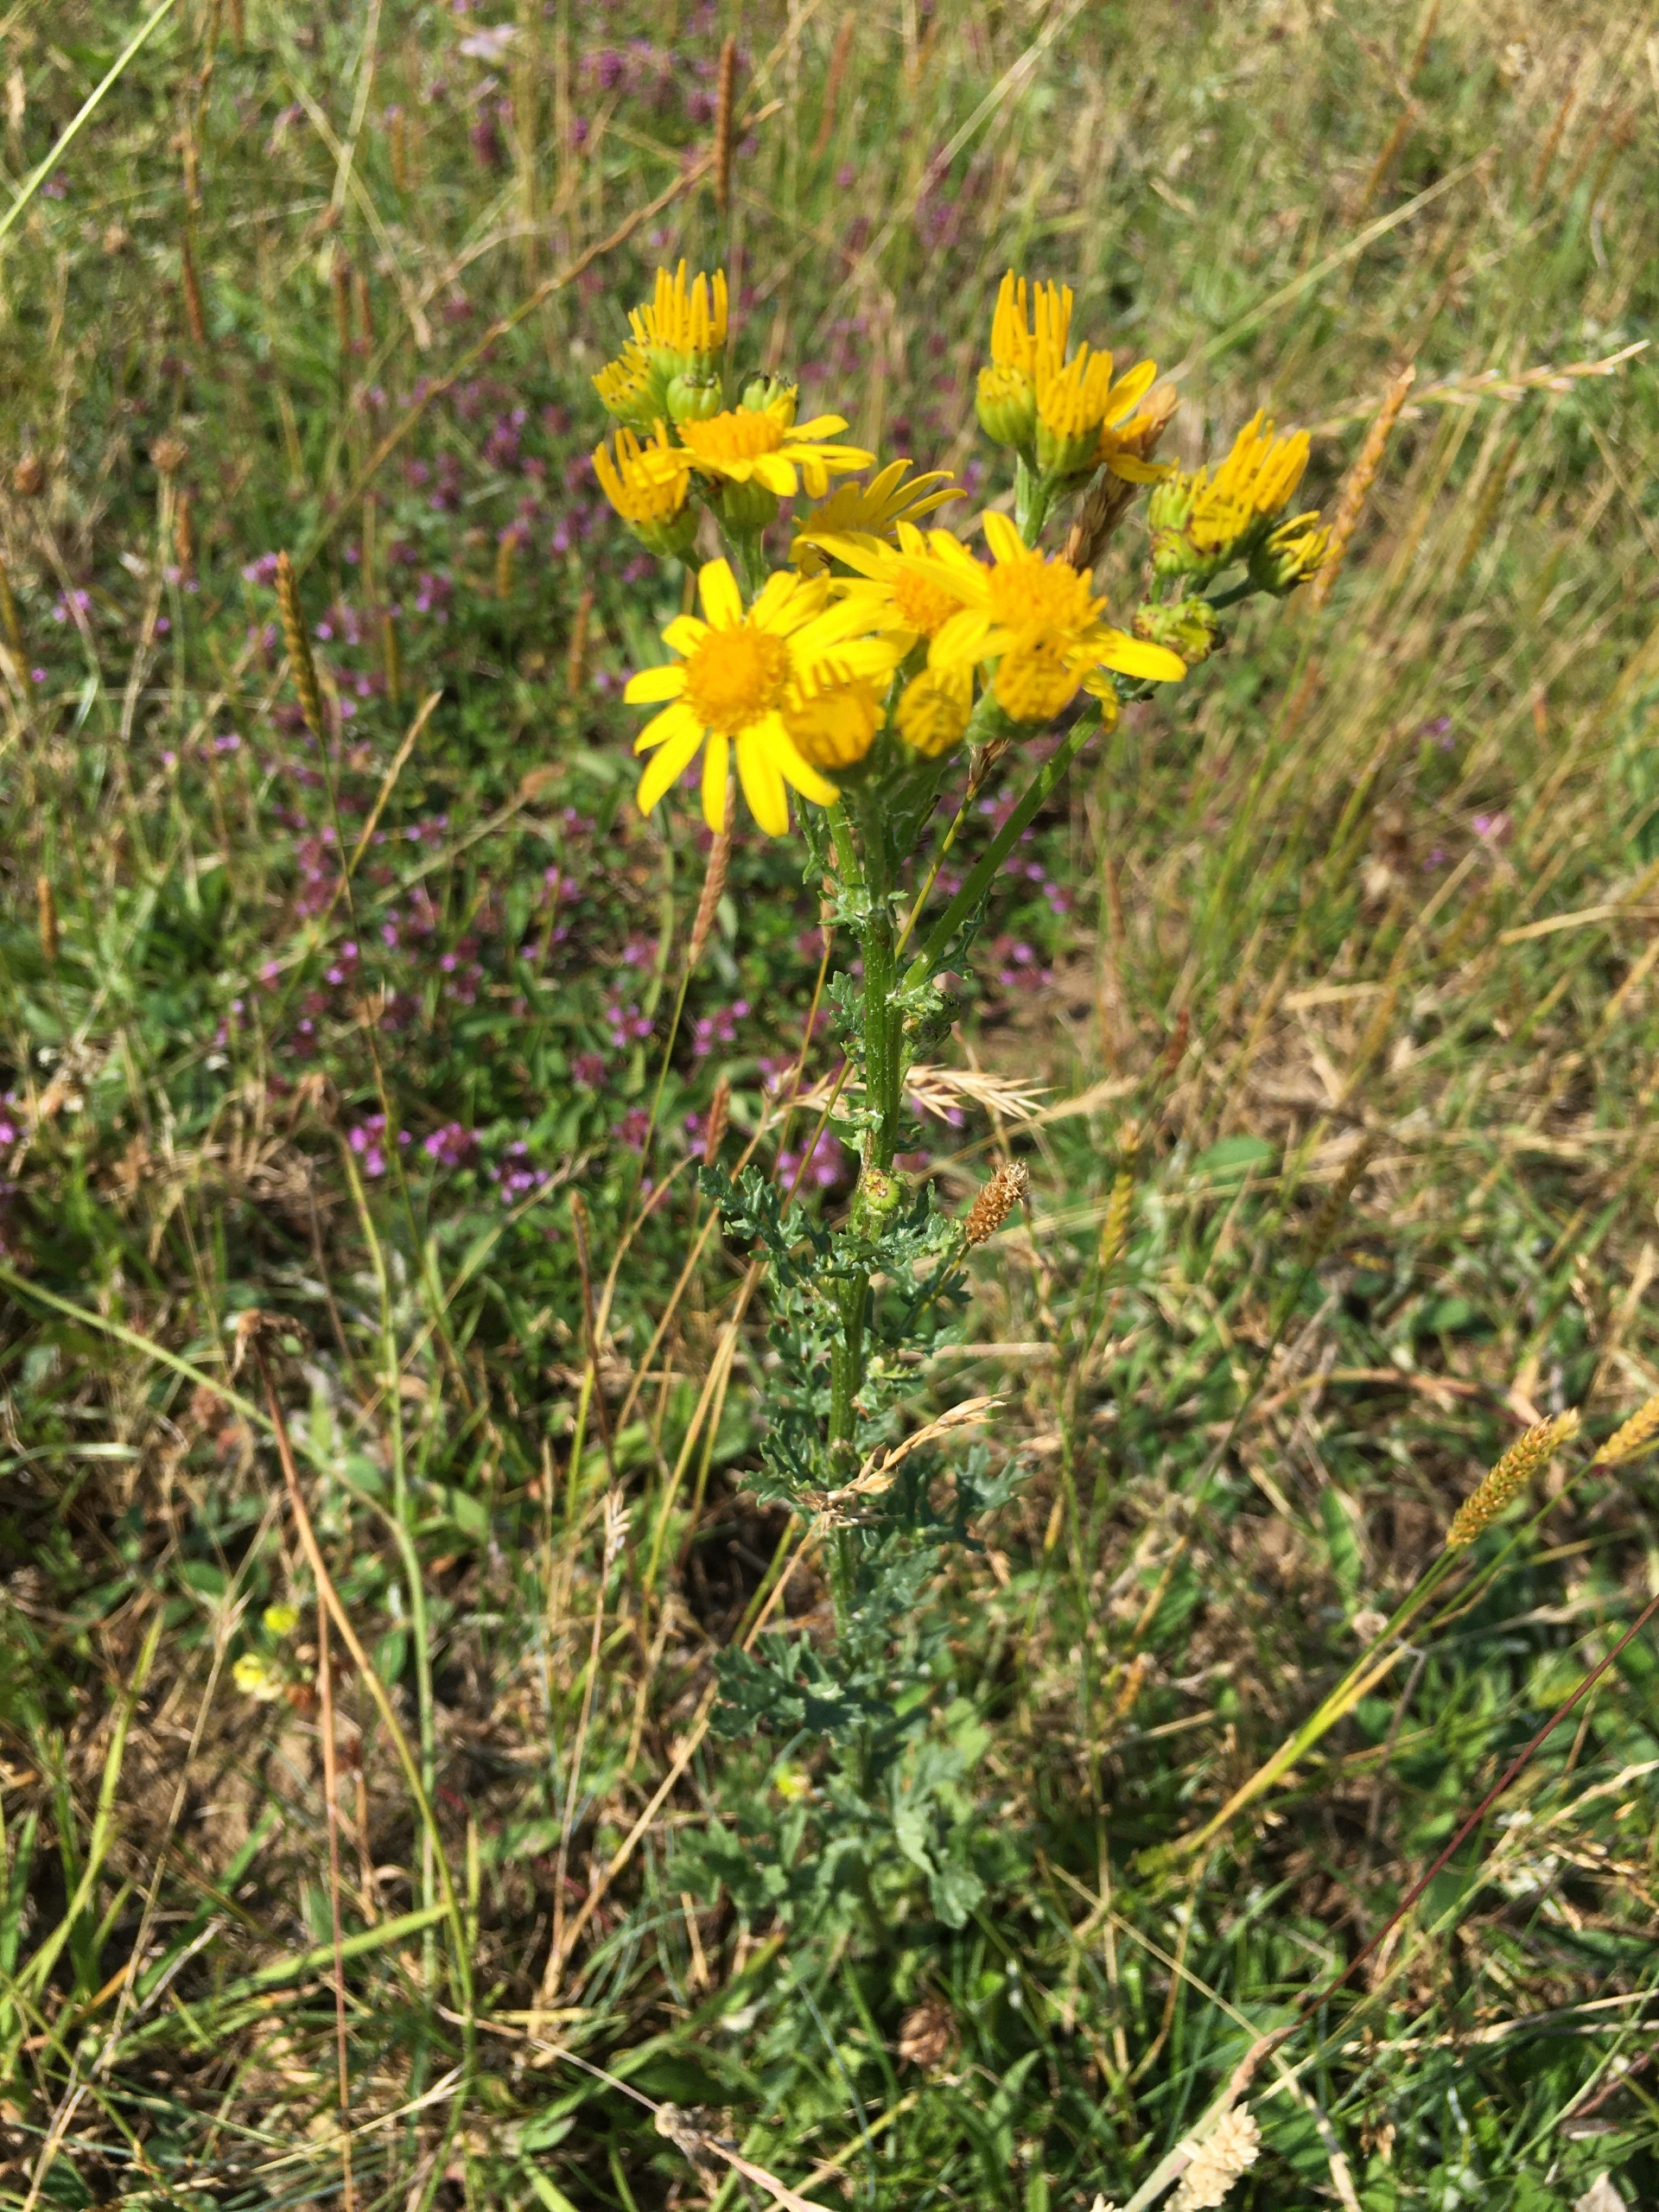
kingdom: Plantae
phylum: Tracheophyta
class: Magnoliopsida
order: Asterales
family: Asteraceae
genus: Jacobaea
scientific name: Jacobaea vulgaris
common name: Eng-brandbæger
